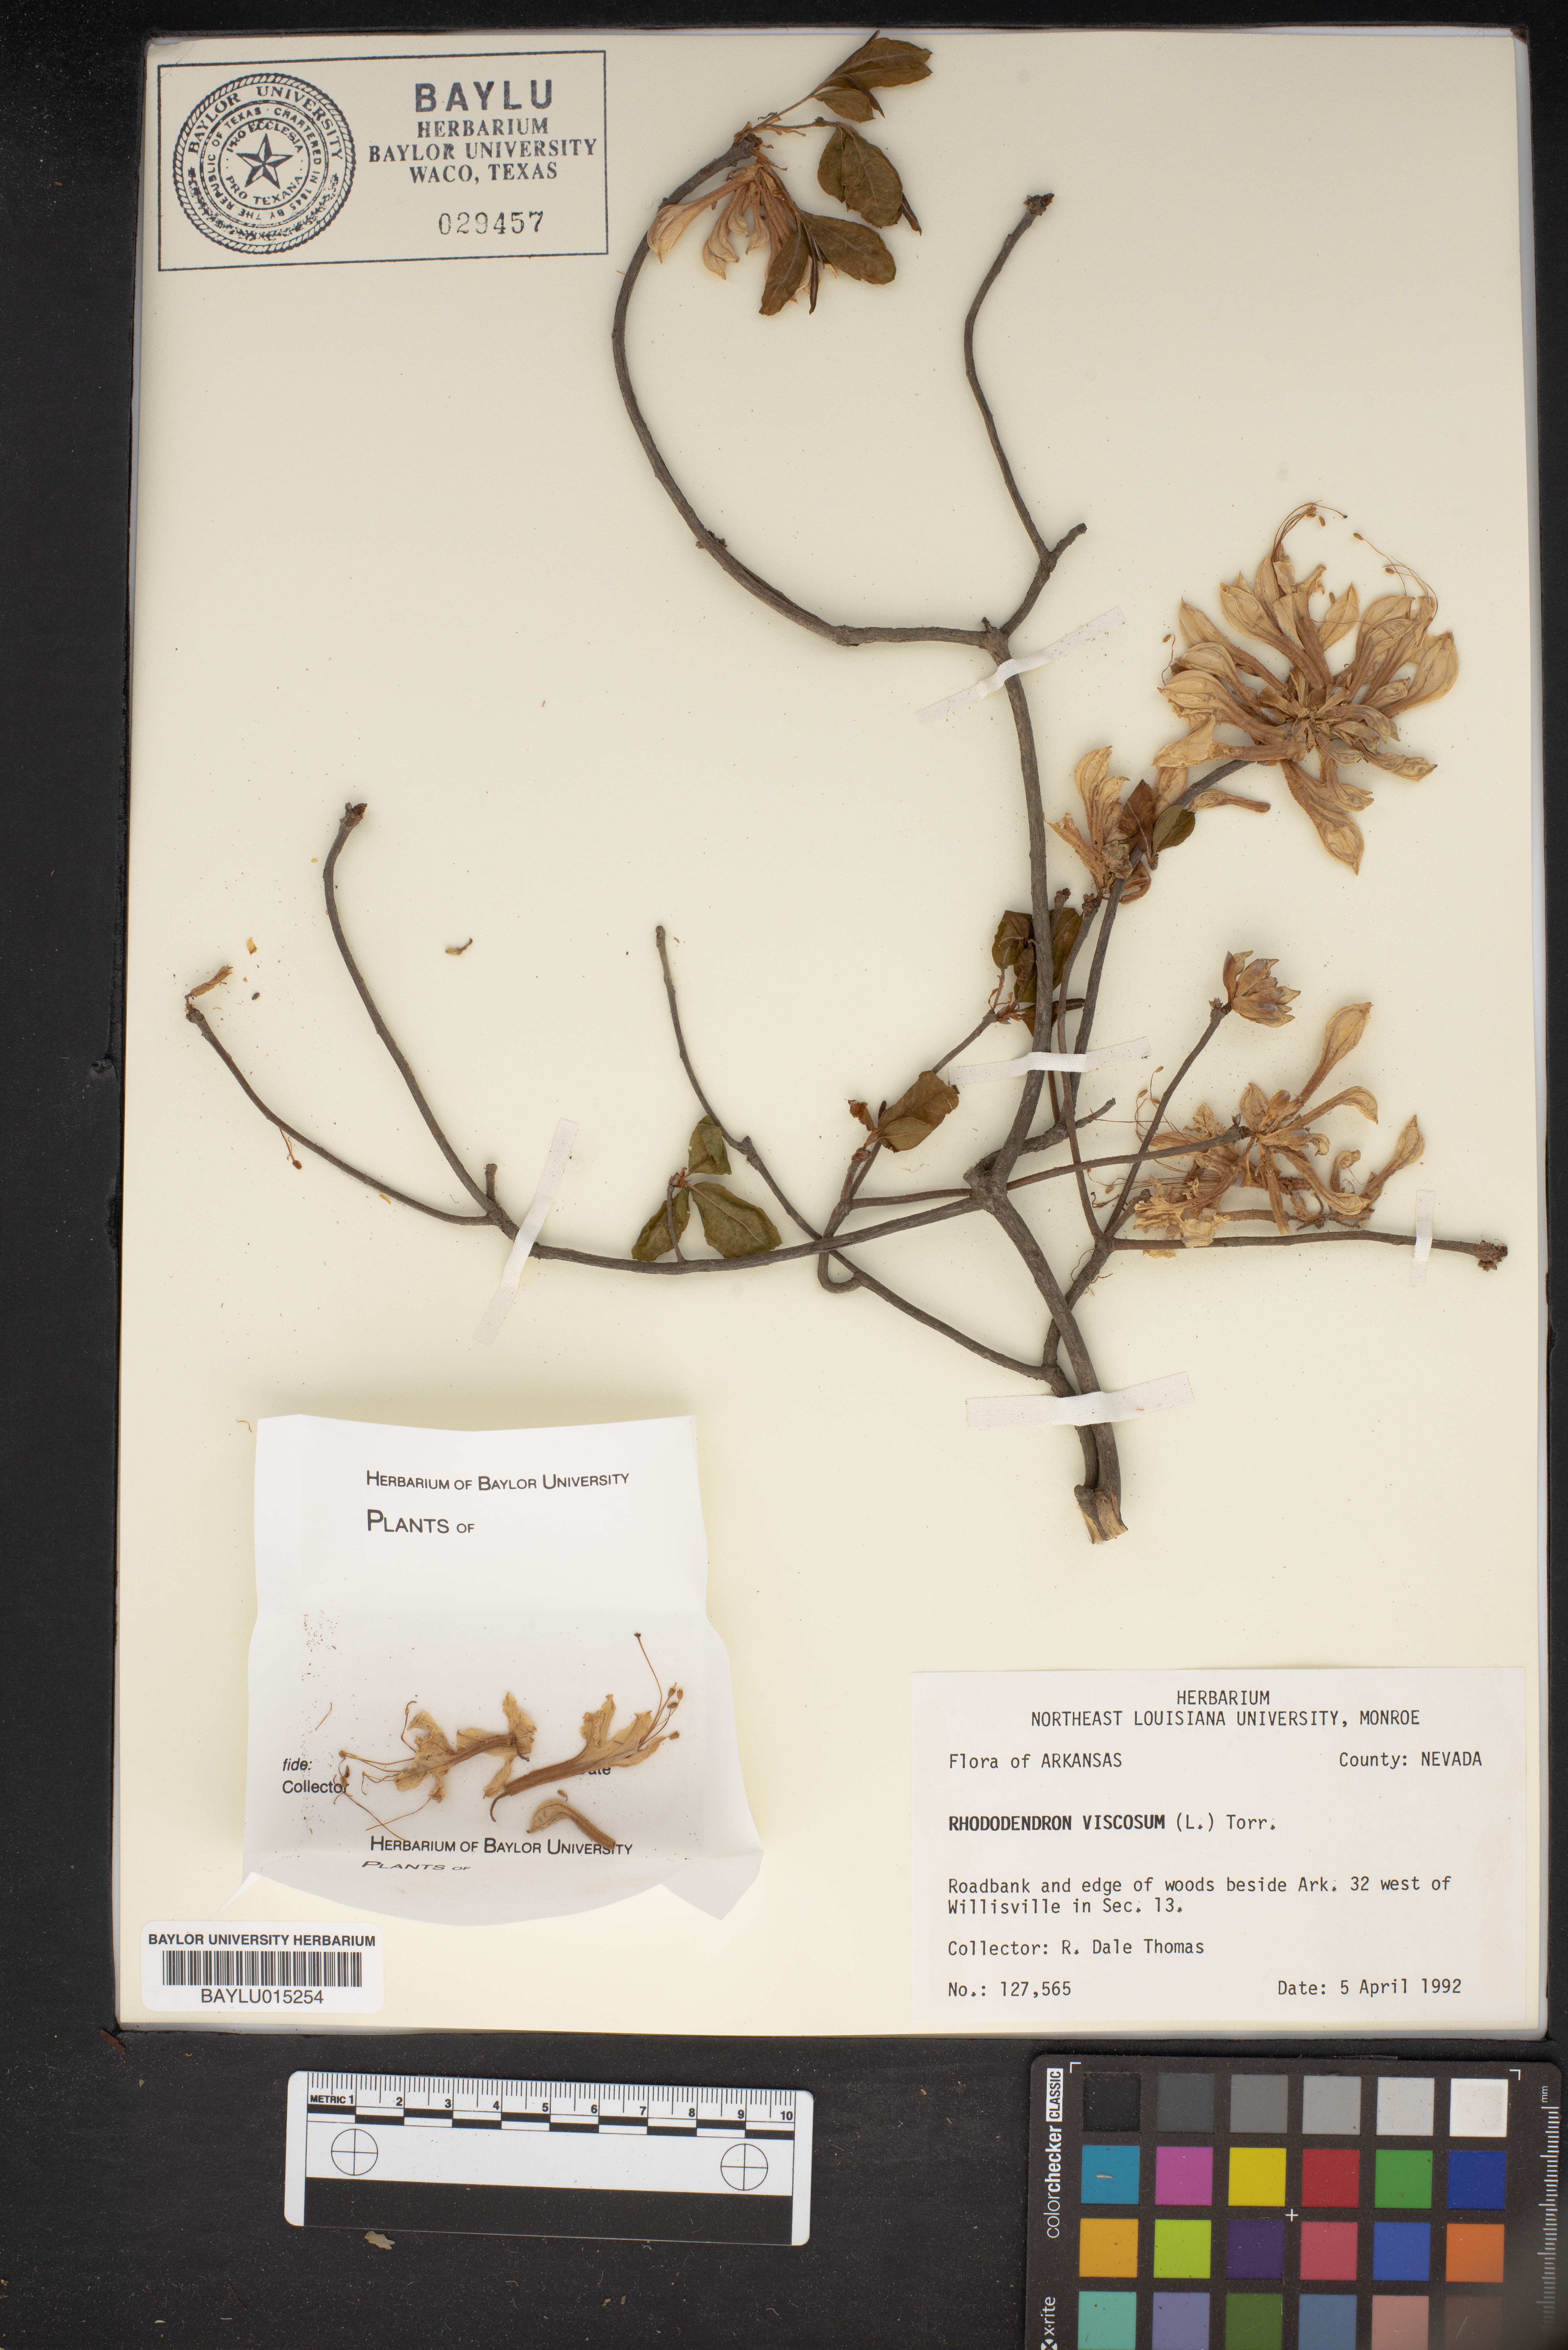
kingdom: Plantae
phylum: Tracheophyta
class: Magnoliopsida
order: Ericales
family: Ericaceae
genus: Rhododendron
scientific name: Rhododendron viscosum
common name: Clammy azalea
